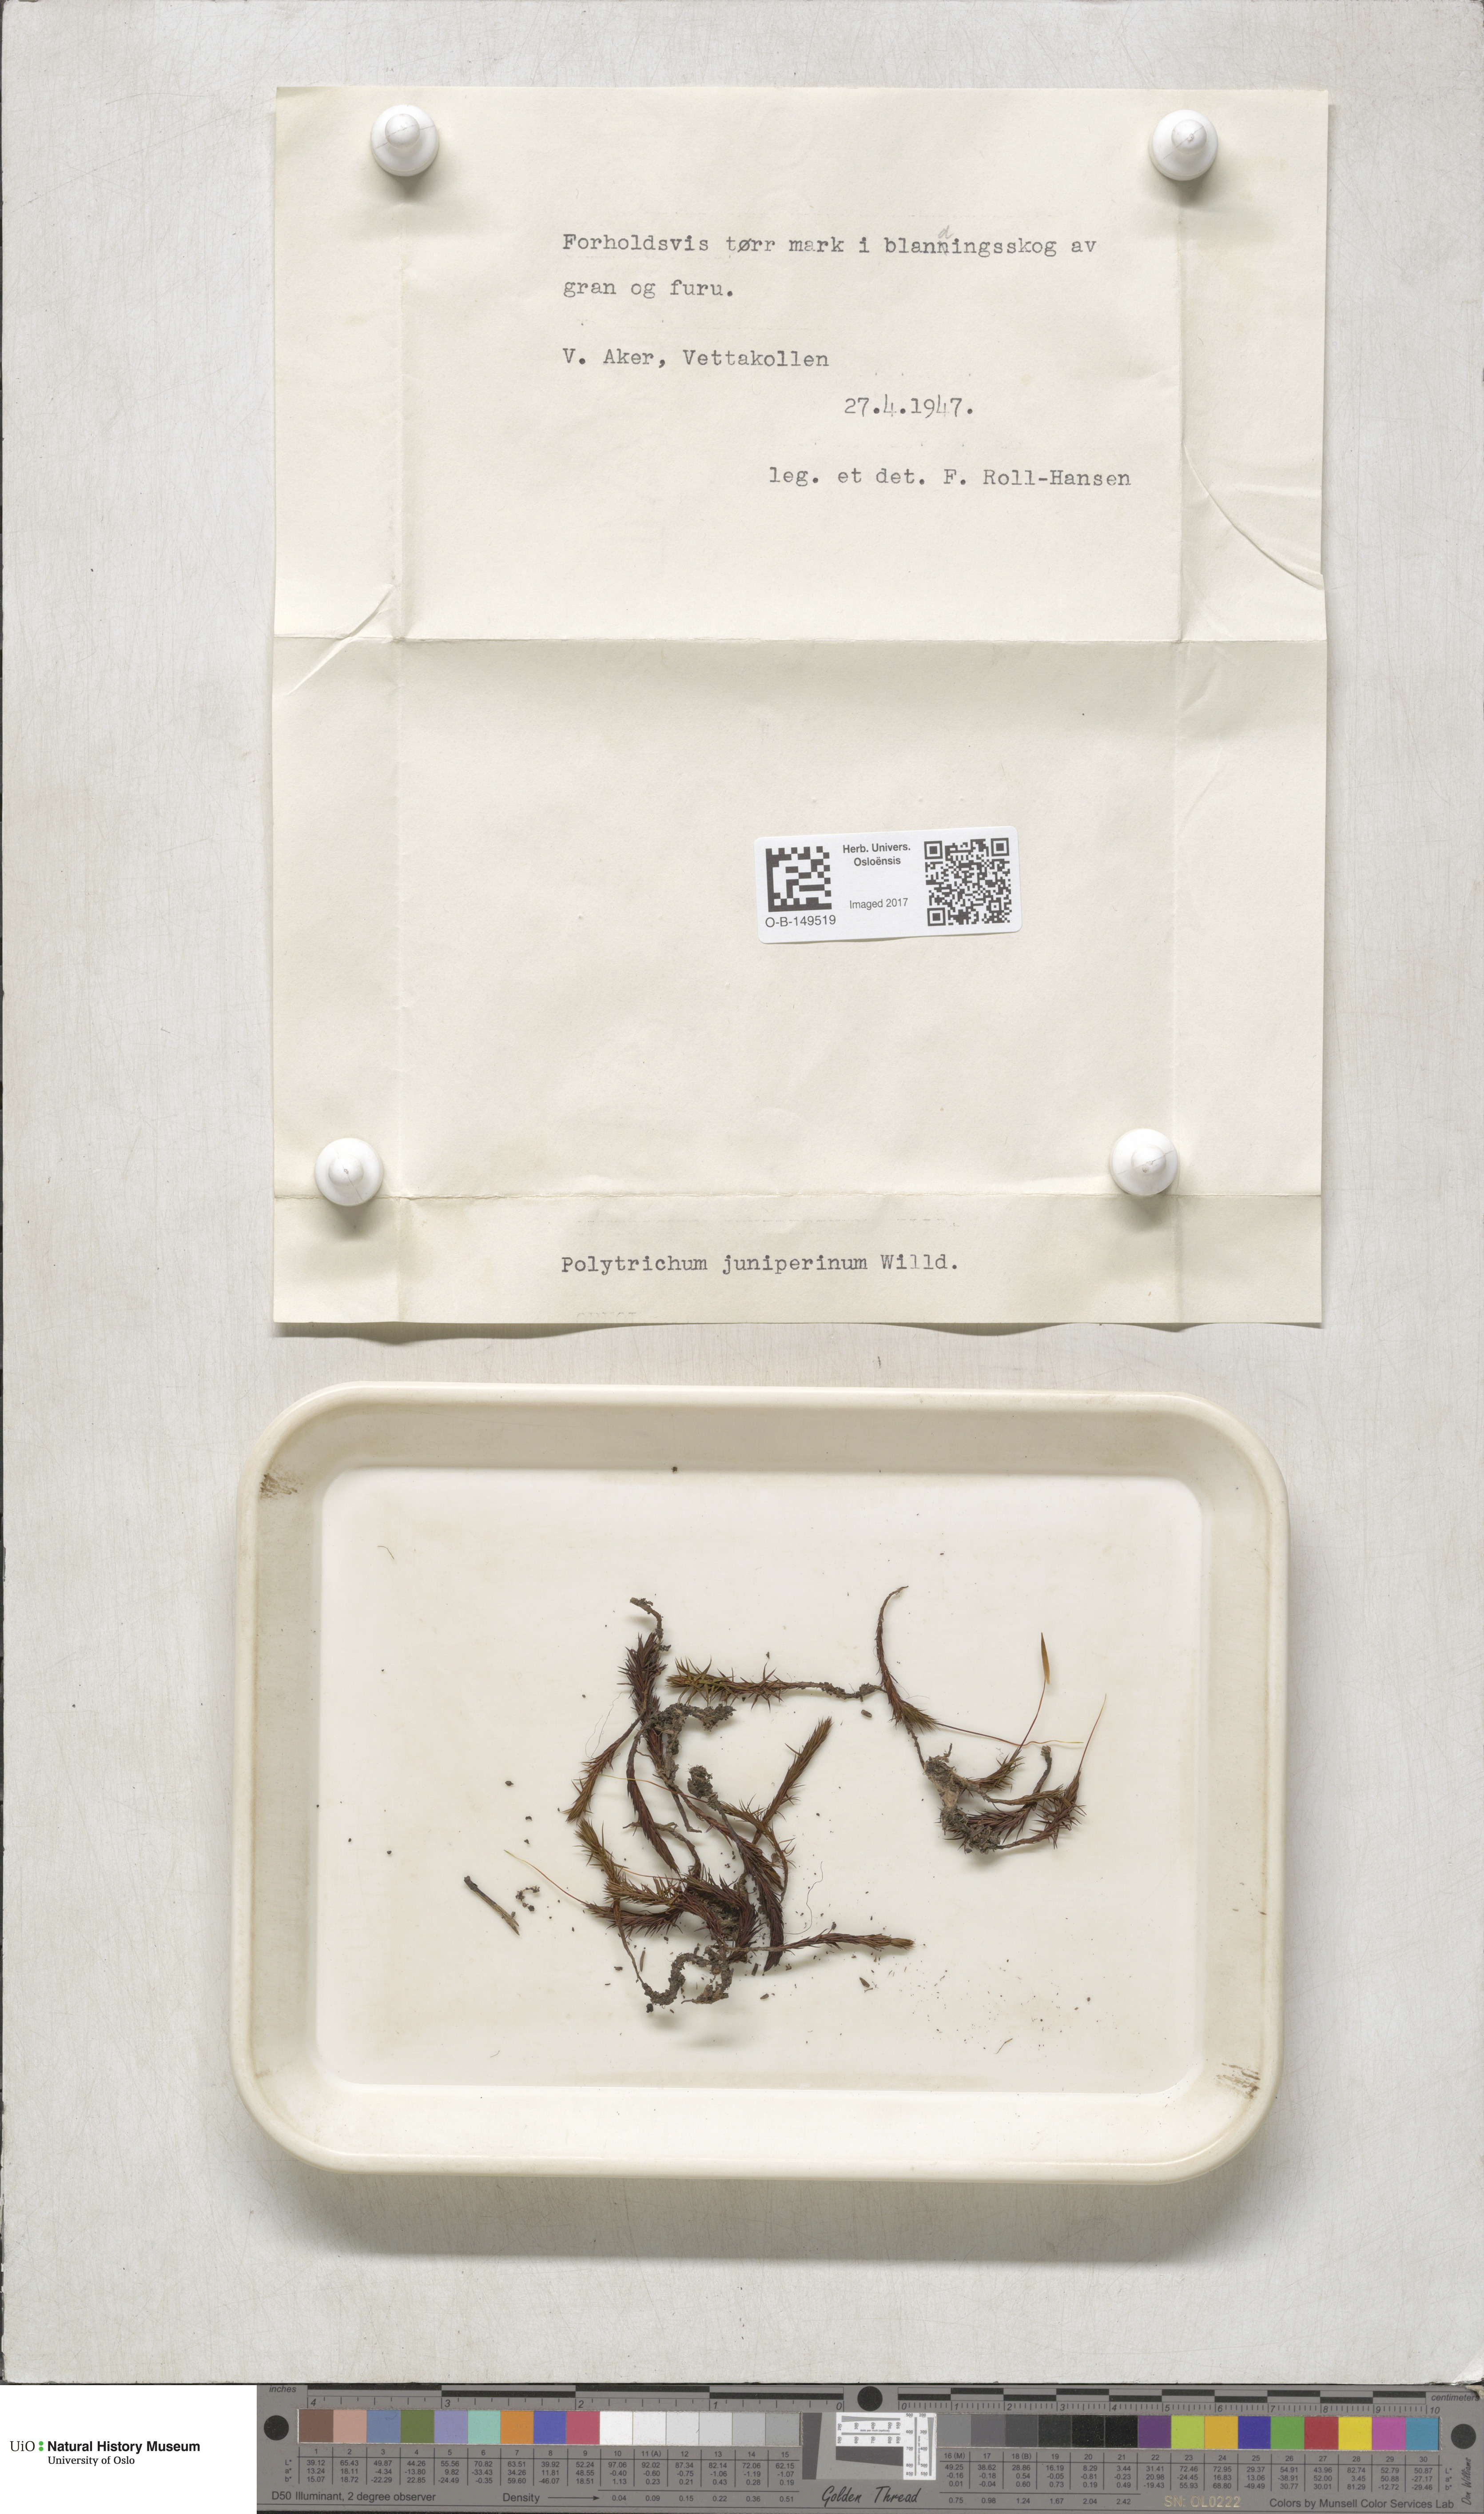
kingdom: Plantae
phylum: Bryophyta
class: Polytrichopsida
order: Polytrichales
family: Polytrichaceae
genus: Polytrichum
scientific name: Polytrichum juniperinum
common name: Juniper haircap moss
